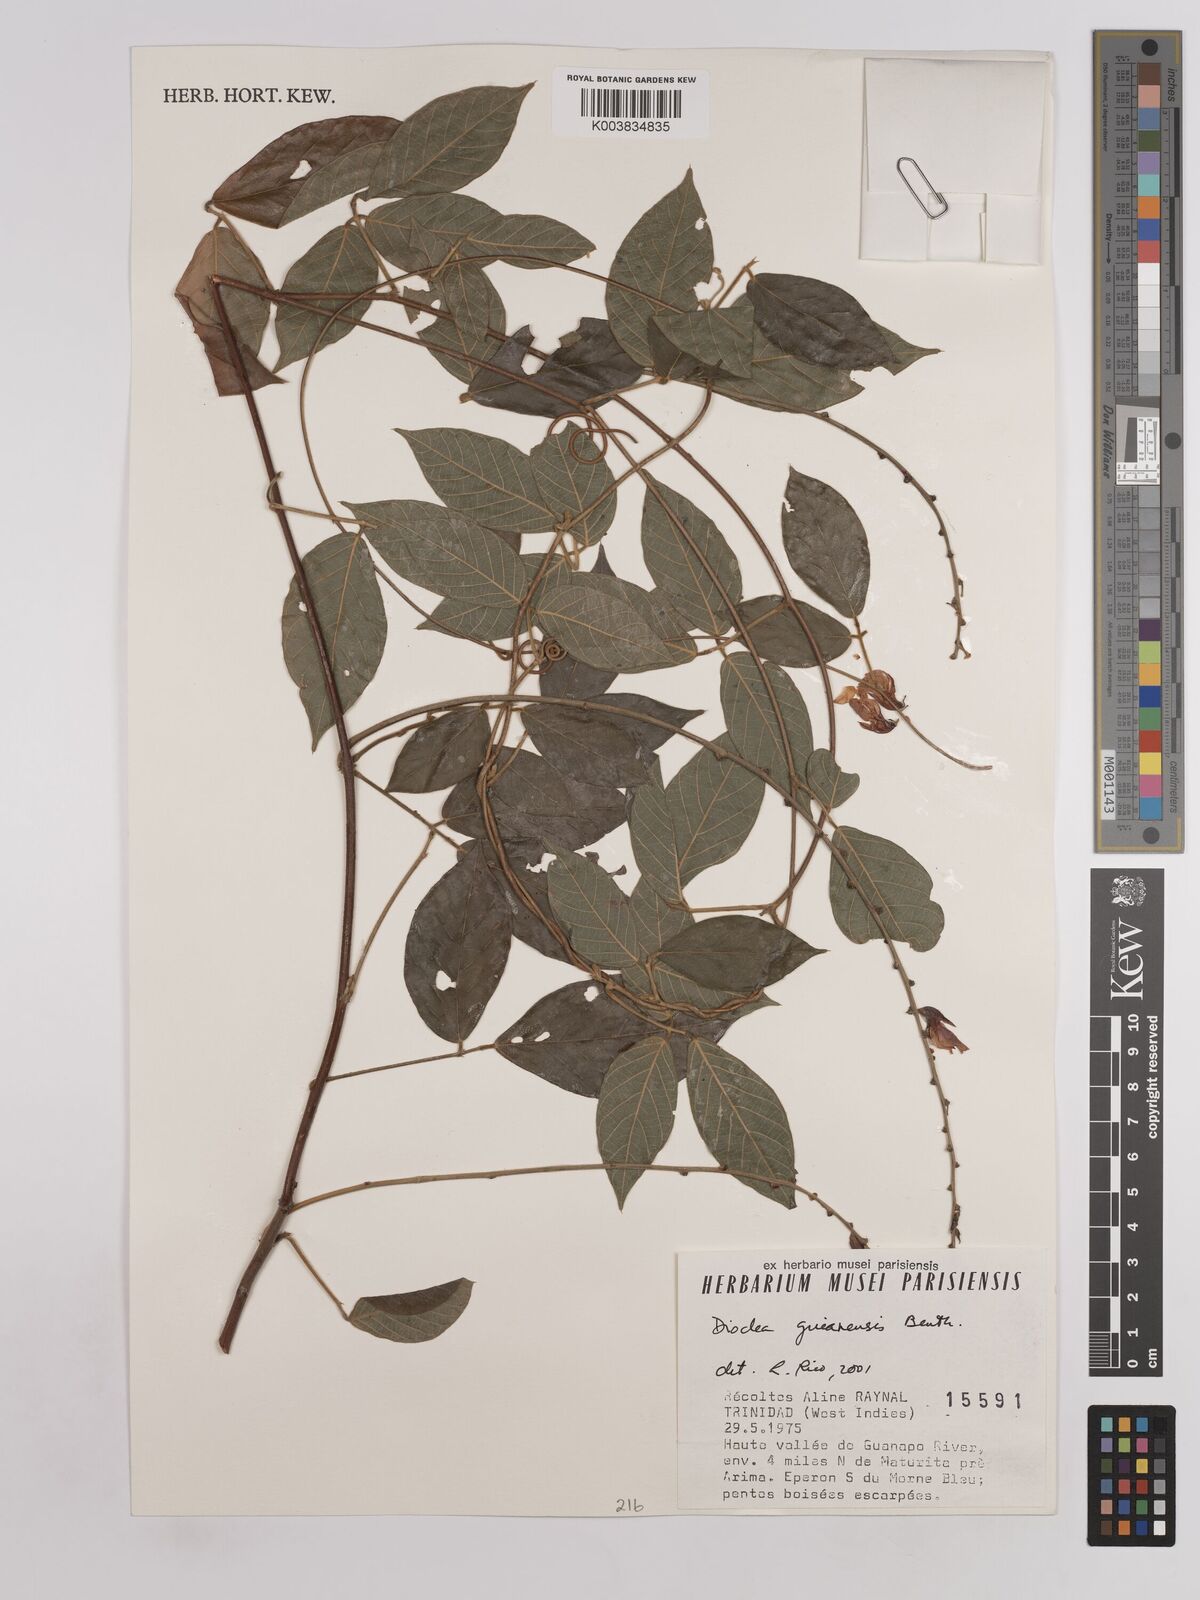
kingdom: Plantae
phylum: Tracheophyta
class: Magnoliopsida
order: Fabales
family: Fabaceae
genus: Dioclea
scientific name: Dioclea guianensis
